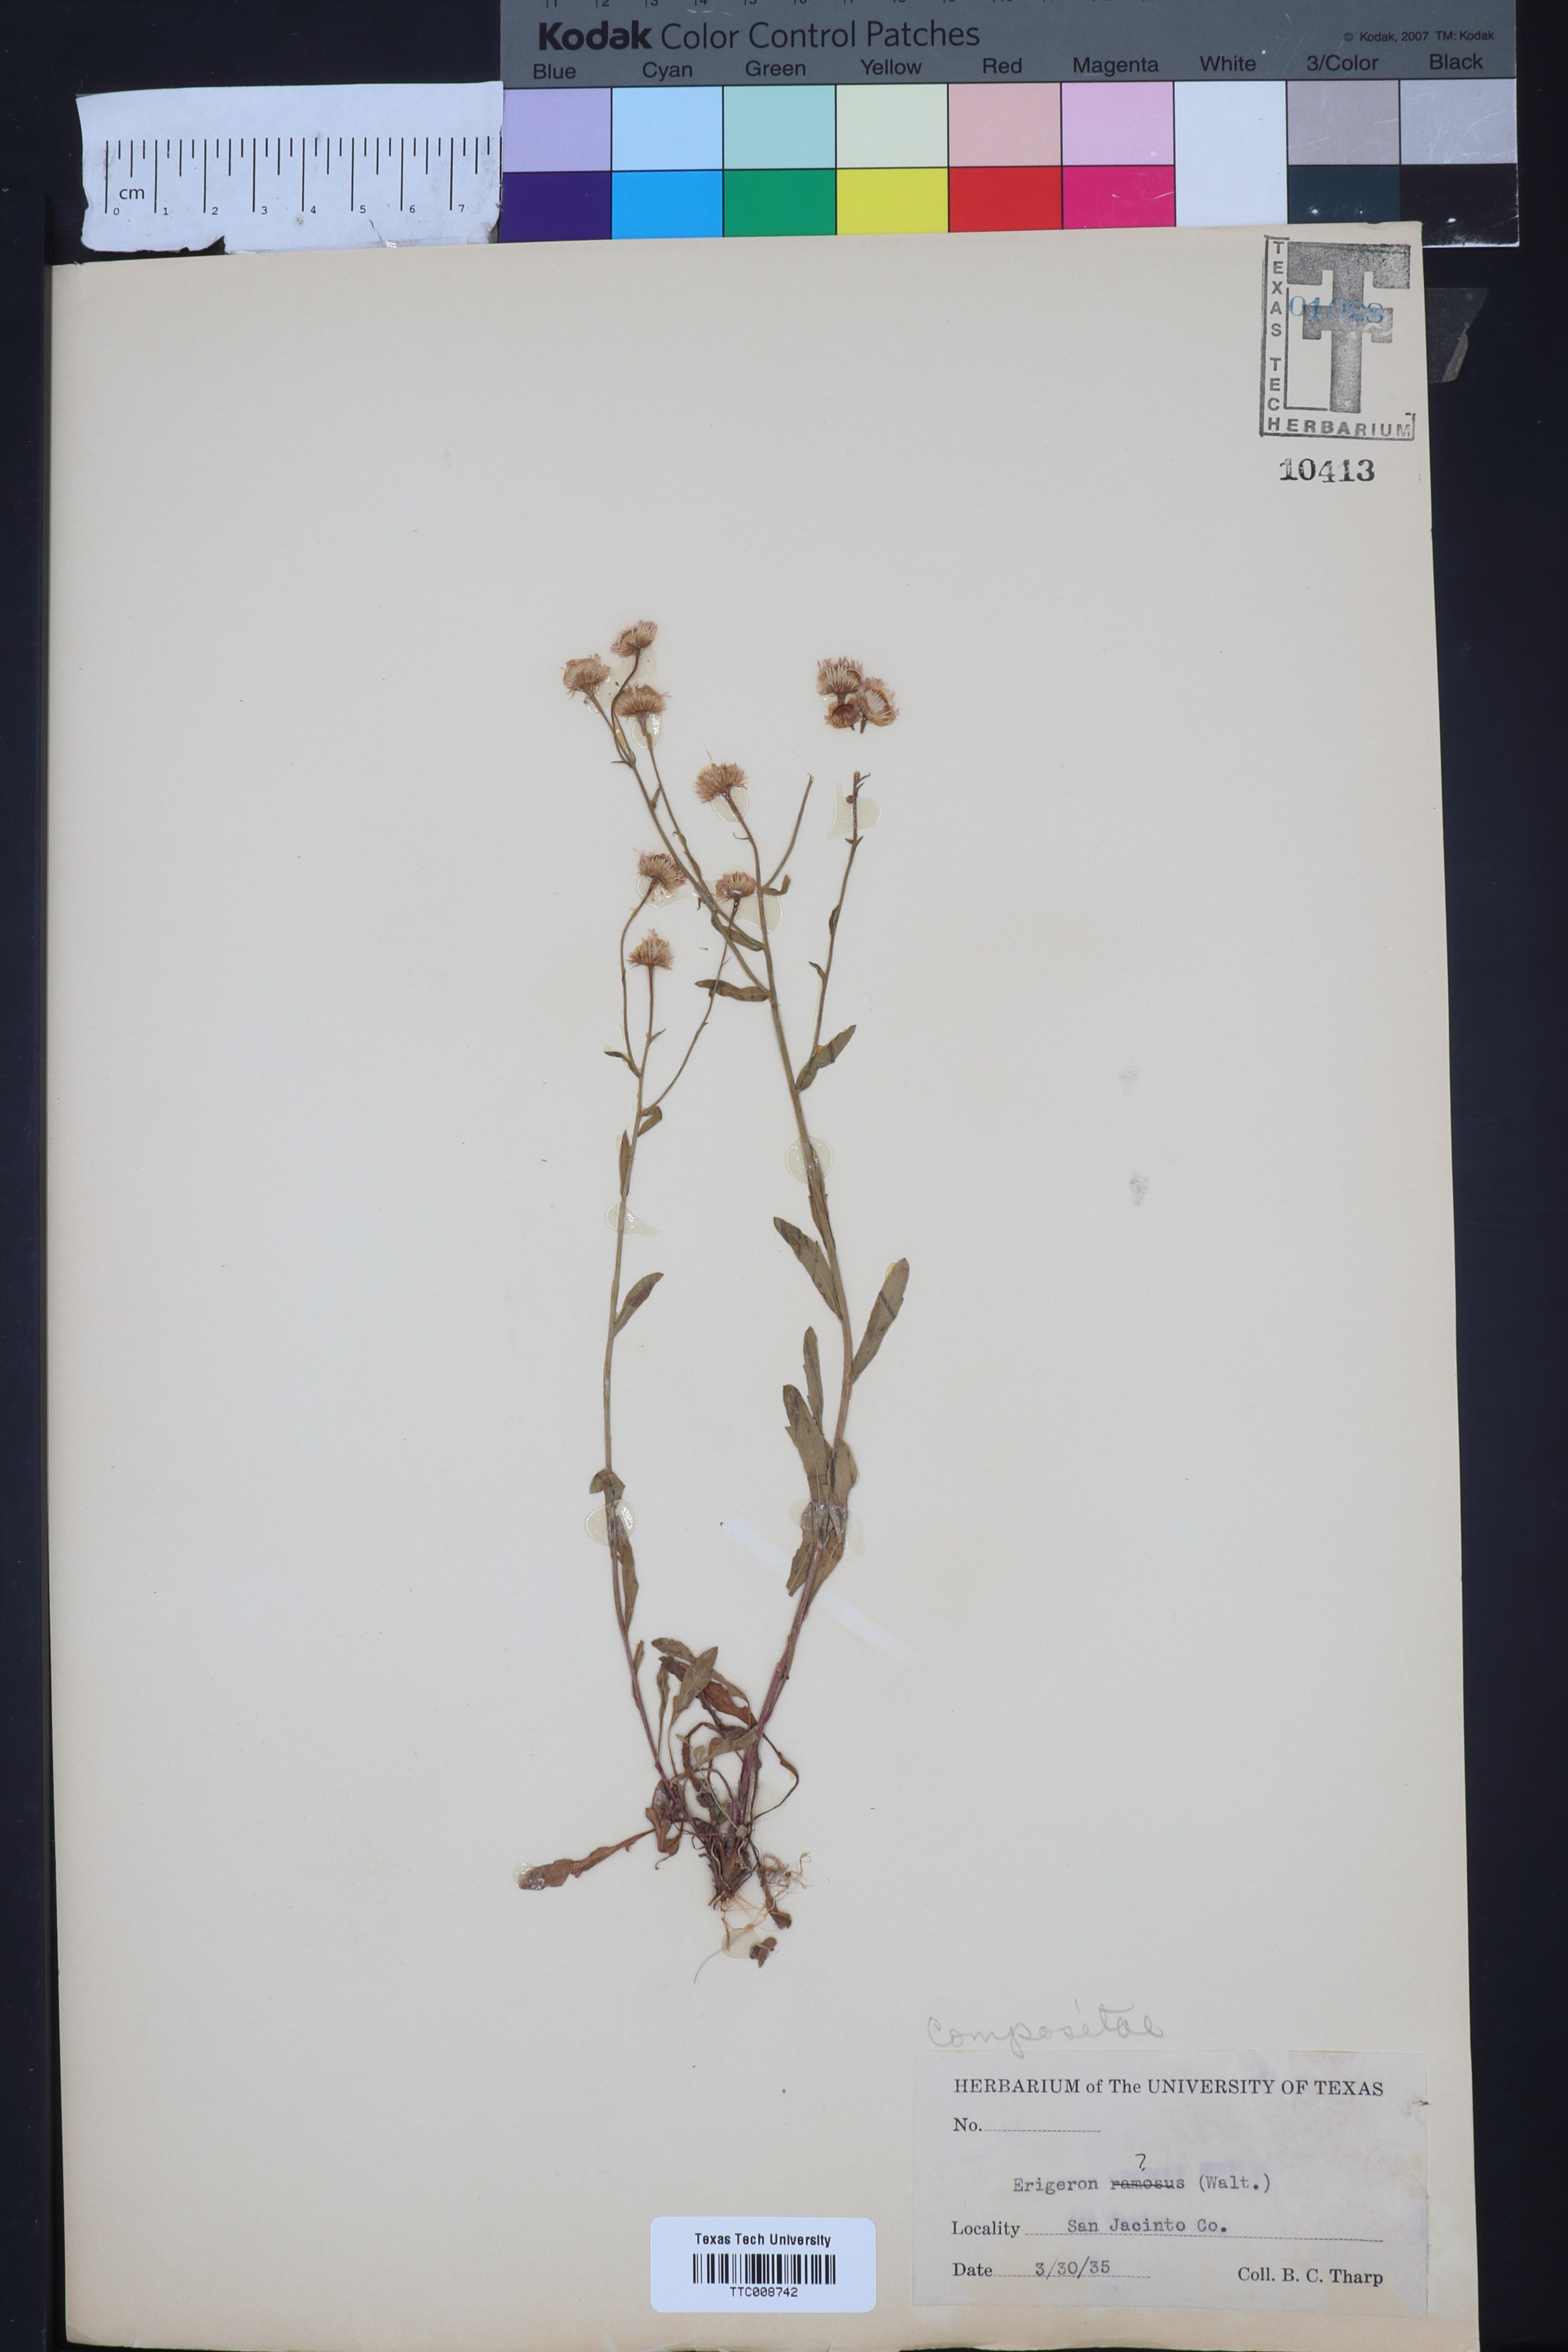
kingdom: Plantae
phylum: Tracheophyta
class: Magnoliopsida
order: Asterales
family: Asteraceae
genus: Erigeron
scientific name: Erigeron
